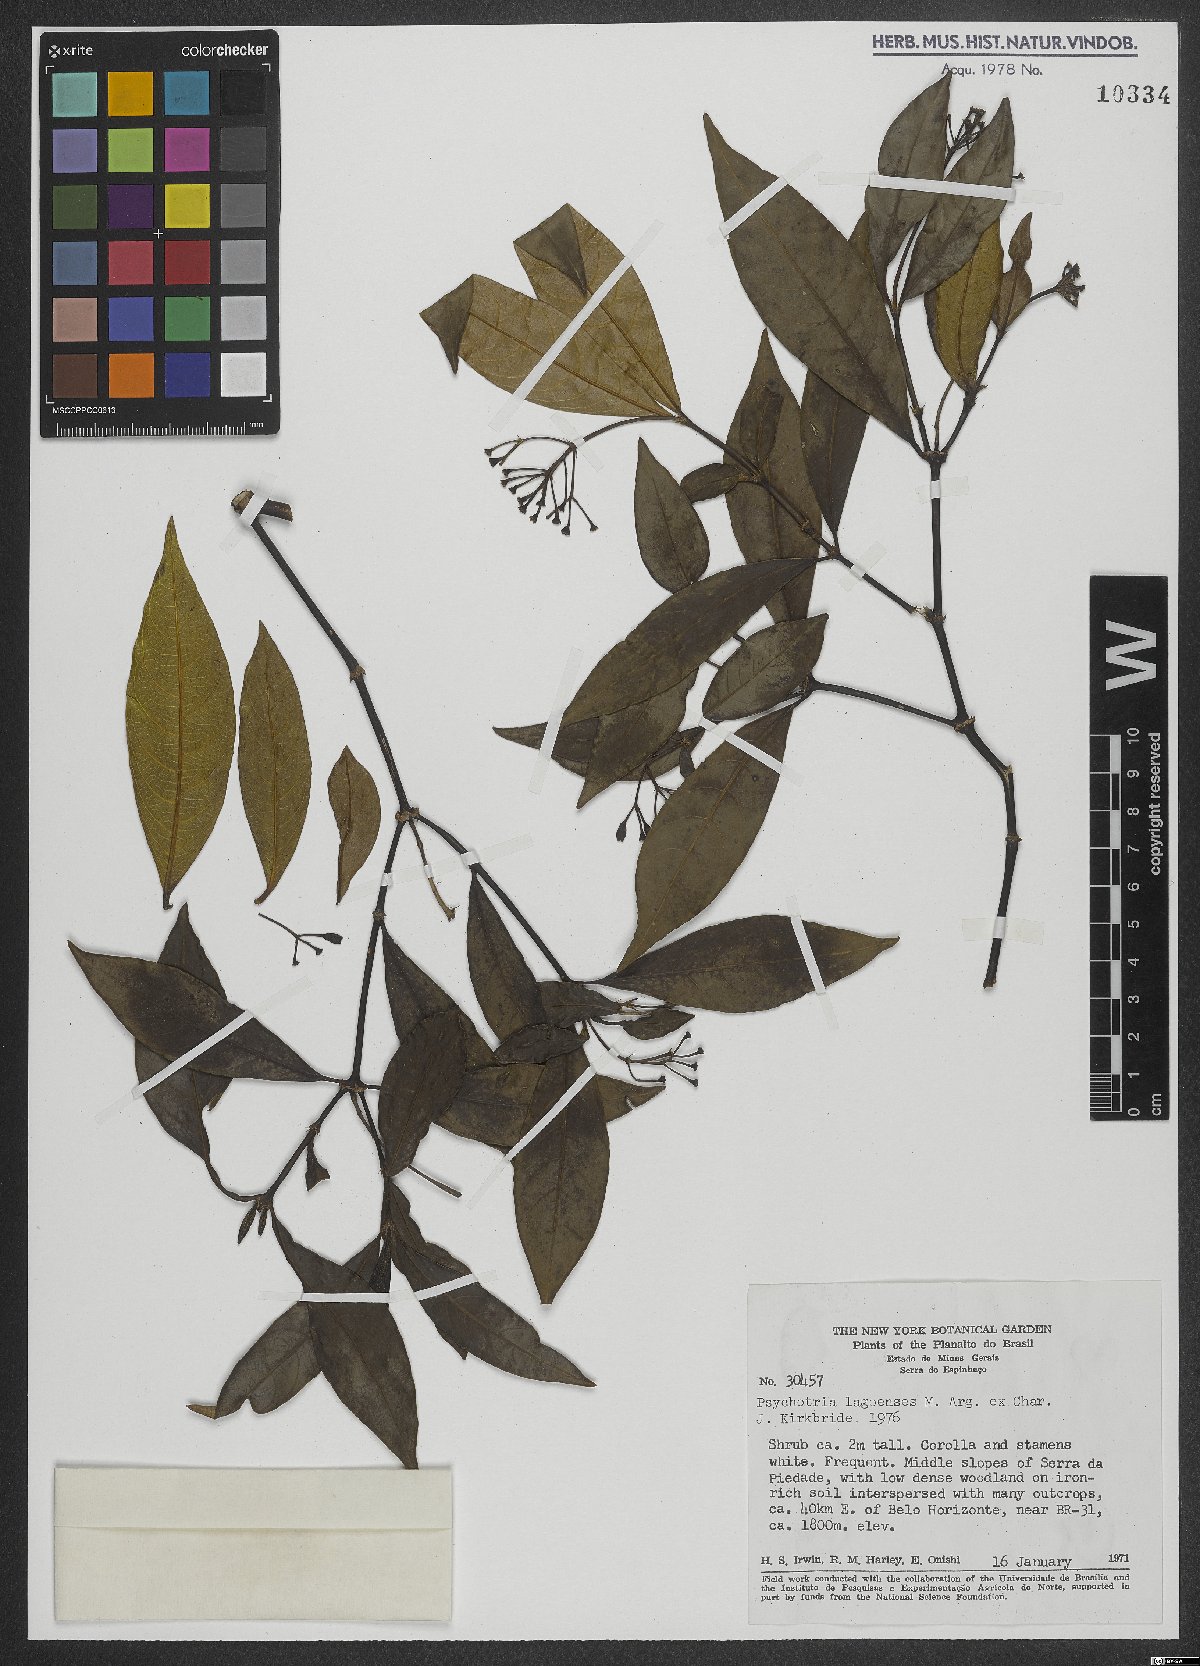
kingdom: Plantae
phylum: Tracheophyta
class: Magnoliopsida
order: Gentianales
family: Rubiaceae
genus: Psychotria
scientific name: Psychotria leiocarpa
